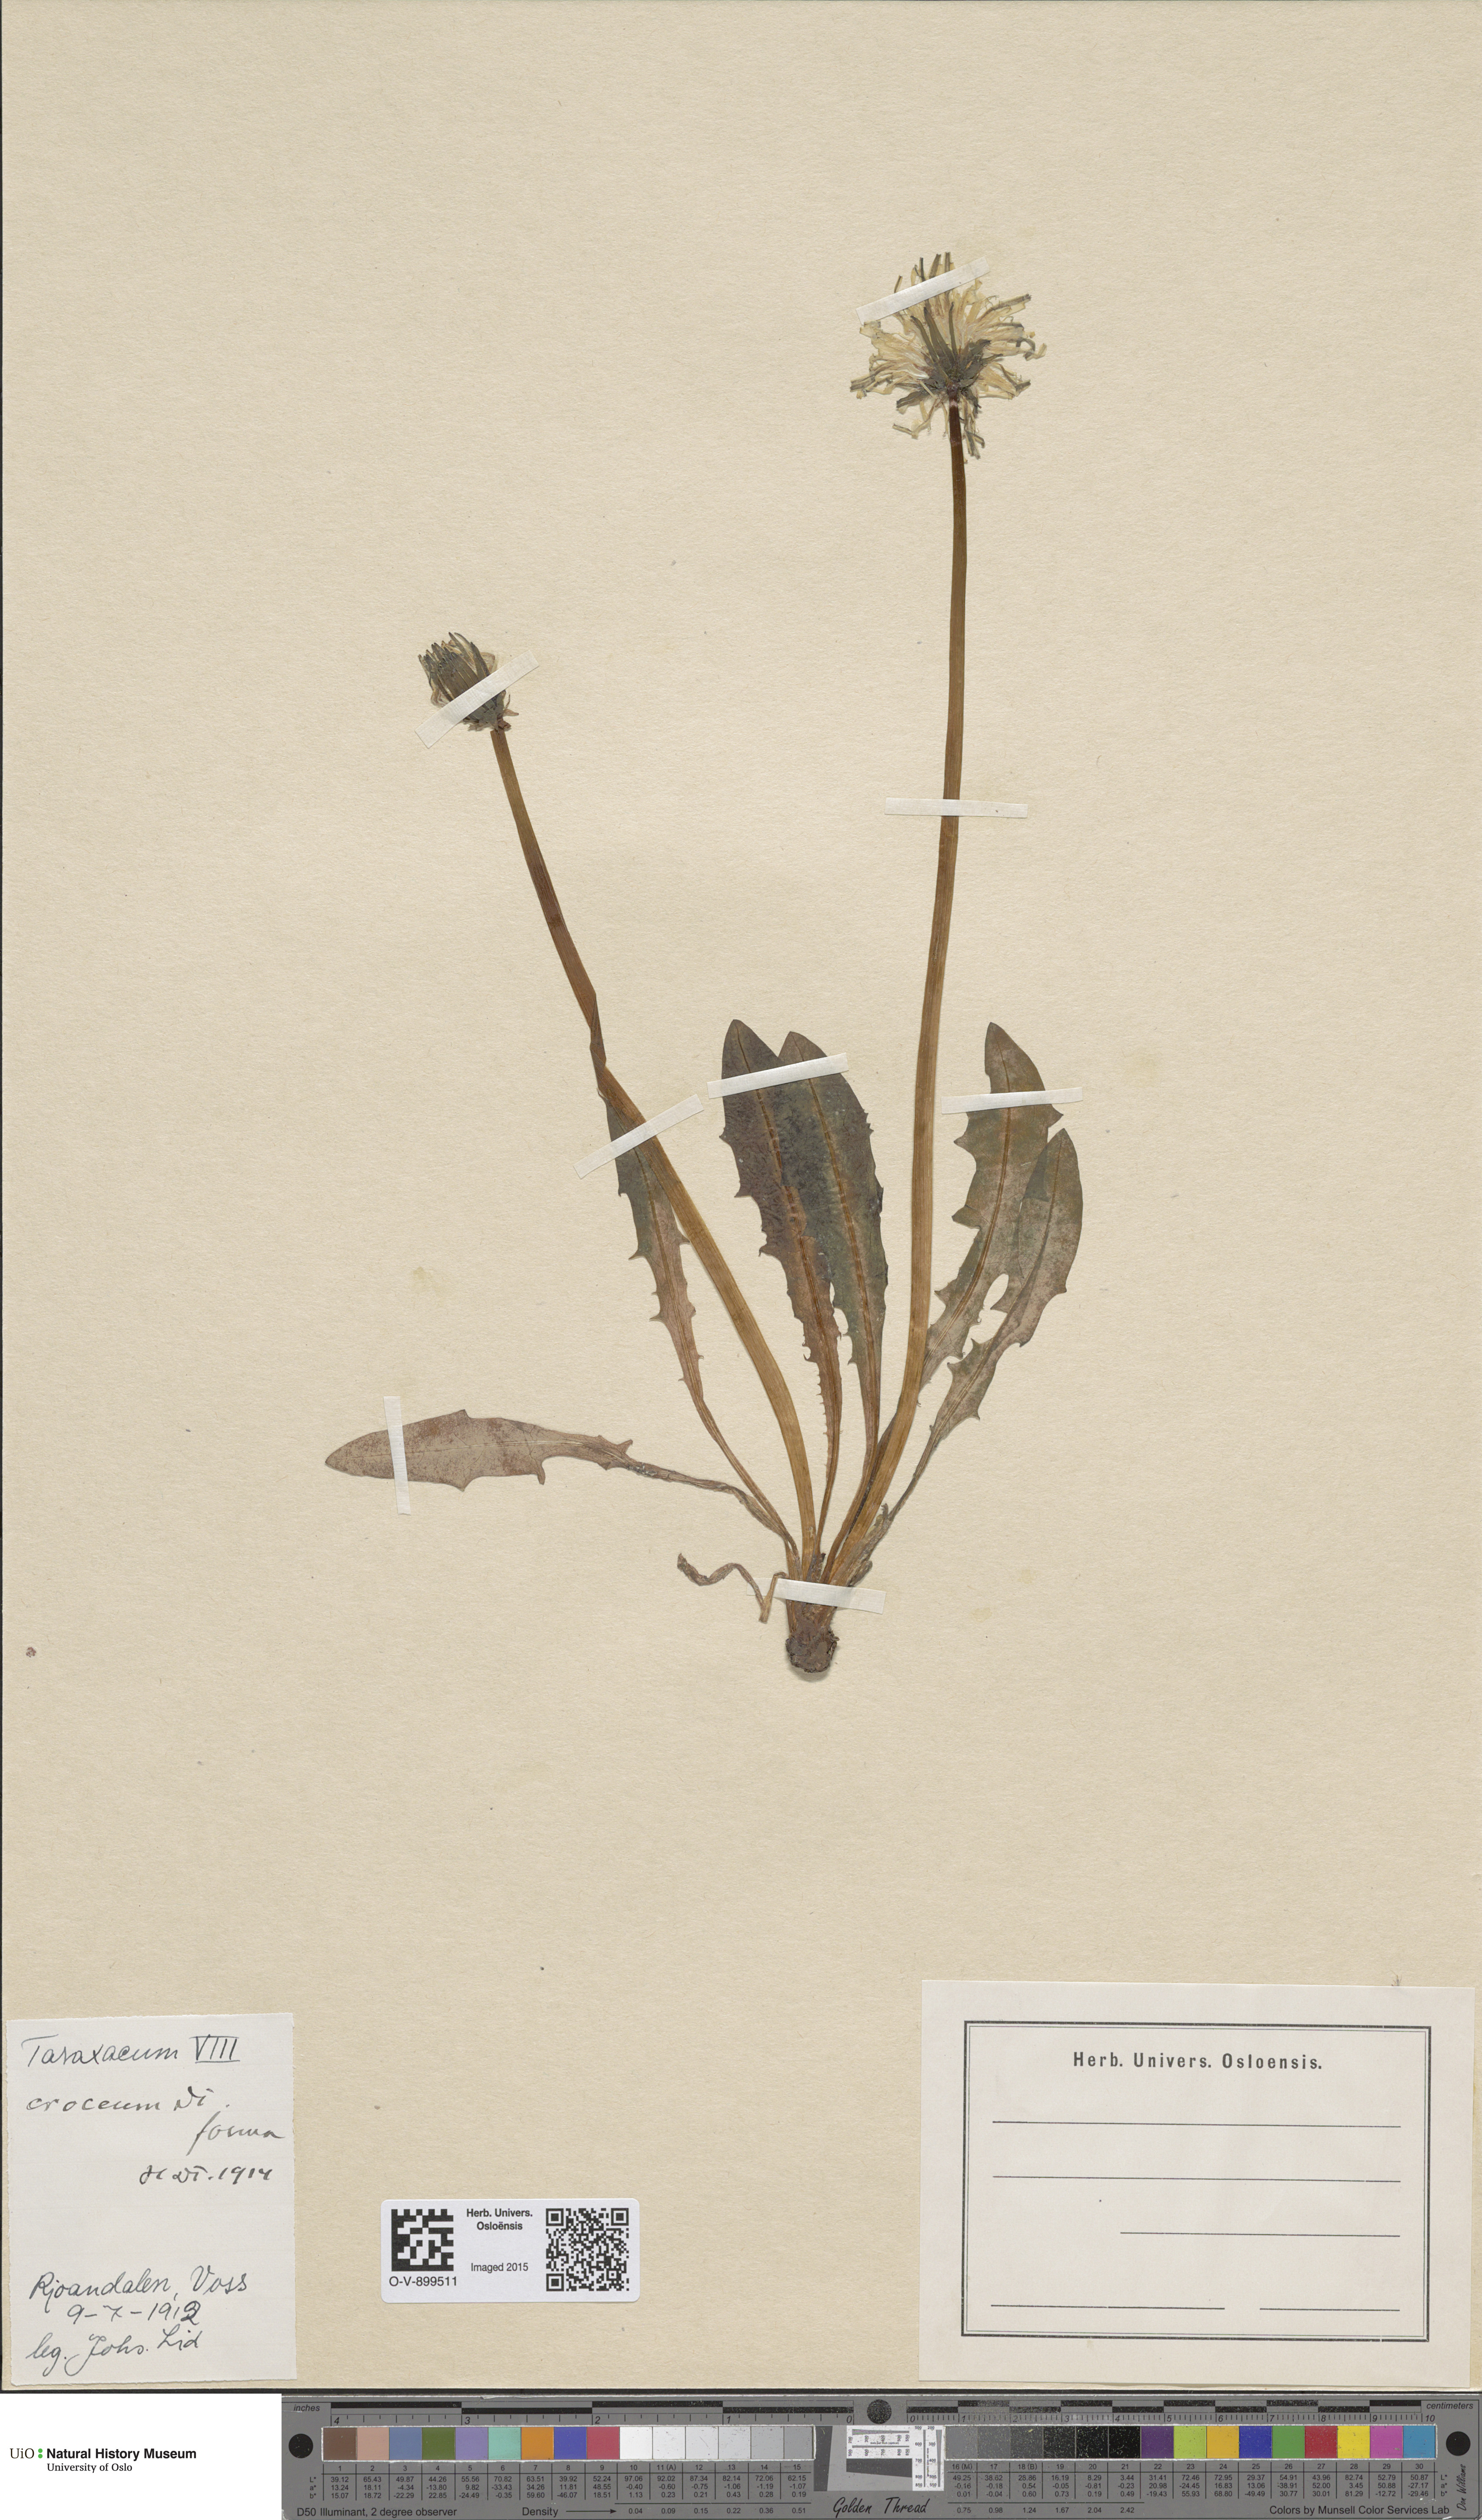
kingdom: Plantae
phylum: Tracheophyta
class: Magnoliopsida
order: Asterales
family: Asteraceae
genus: Taraxacum
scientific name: Taraxacum croceum
